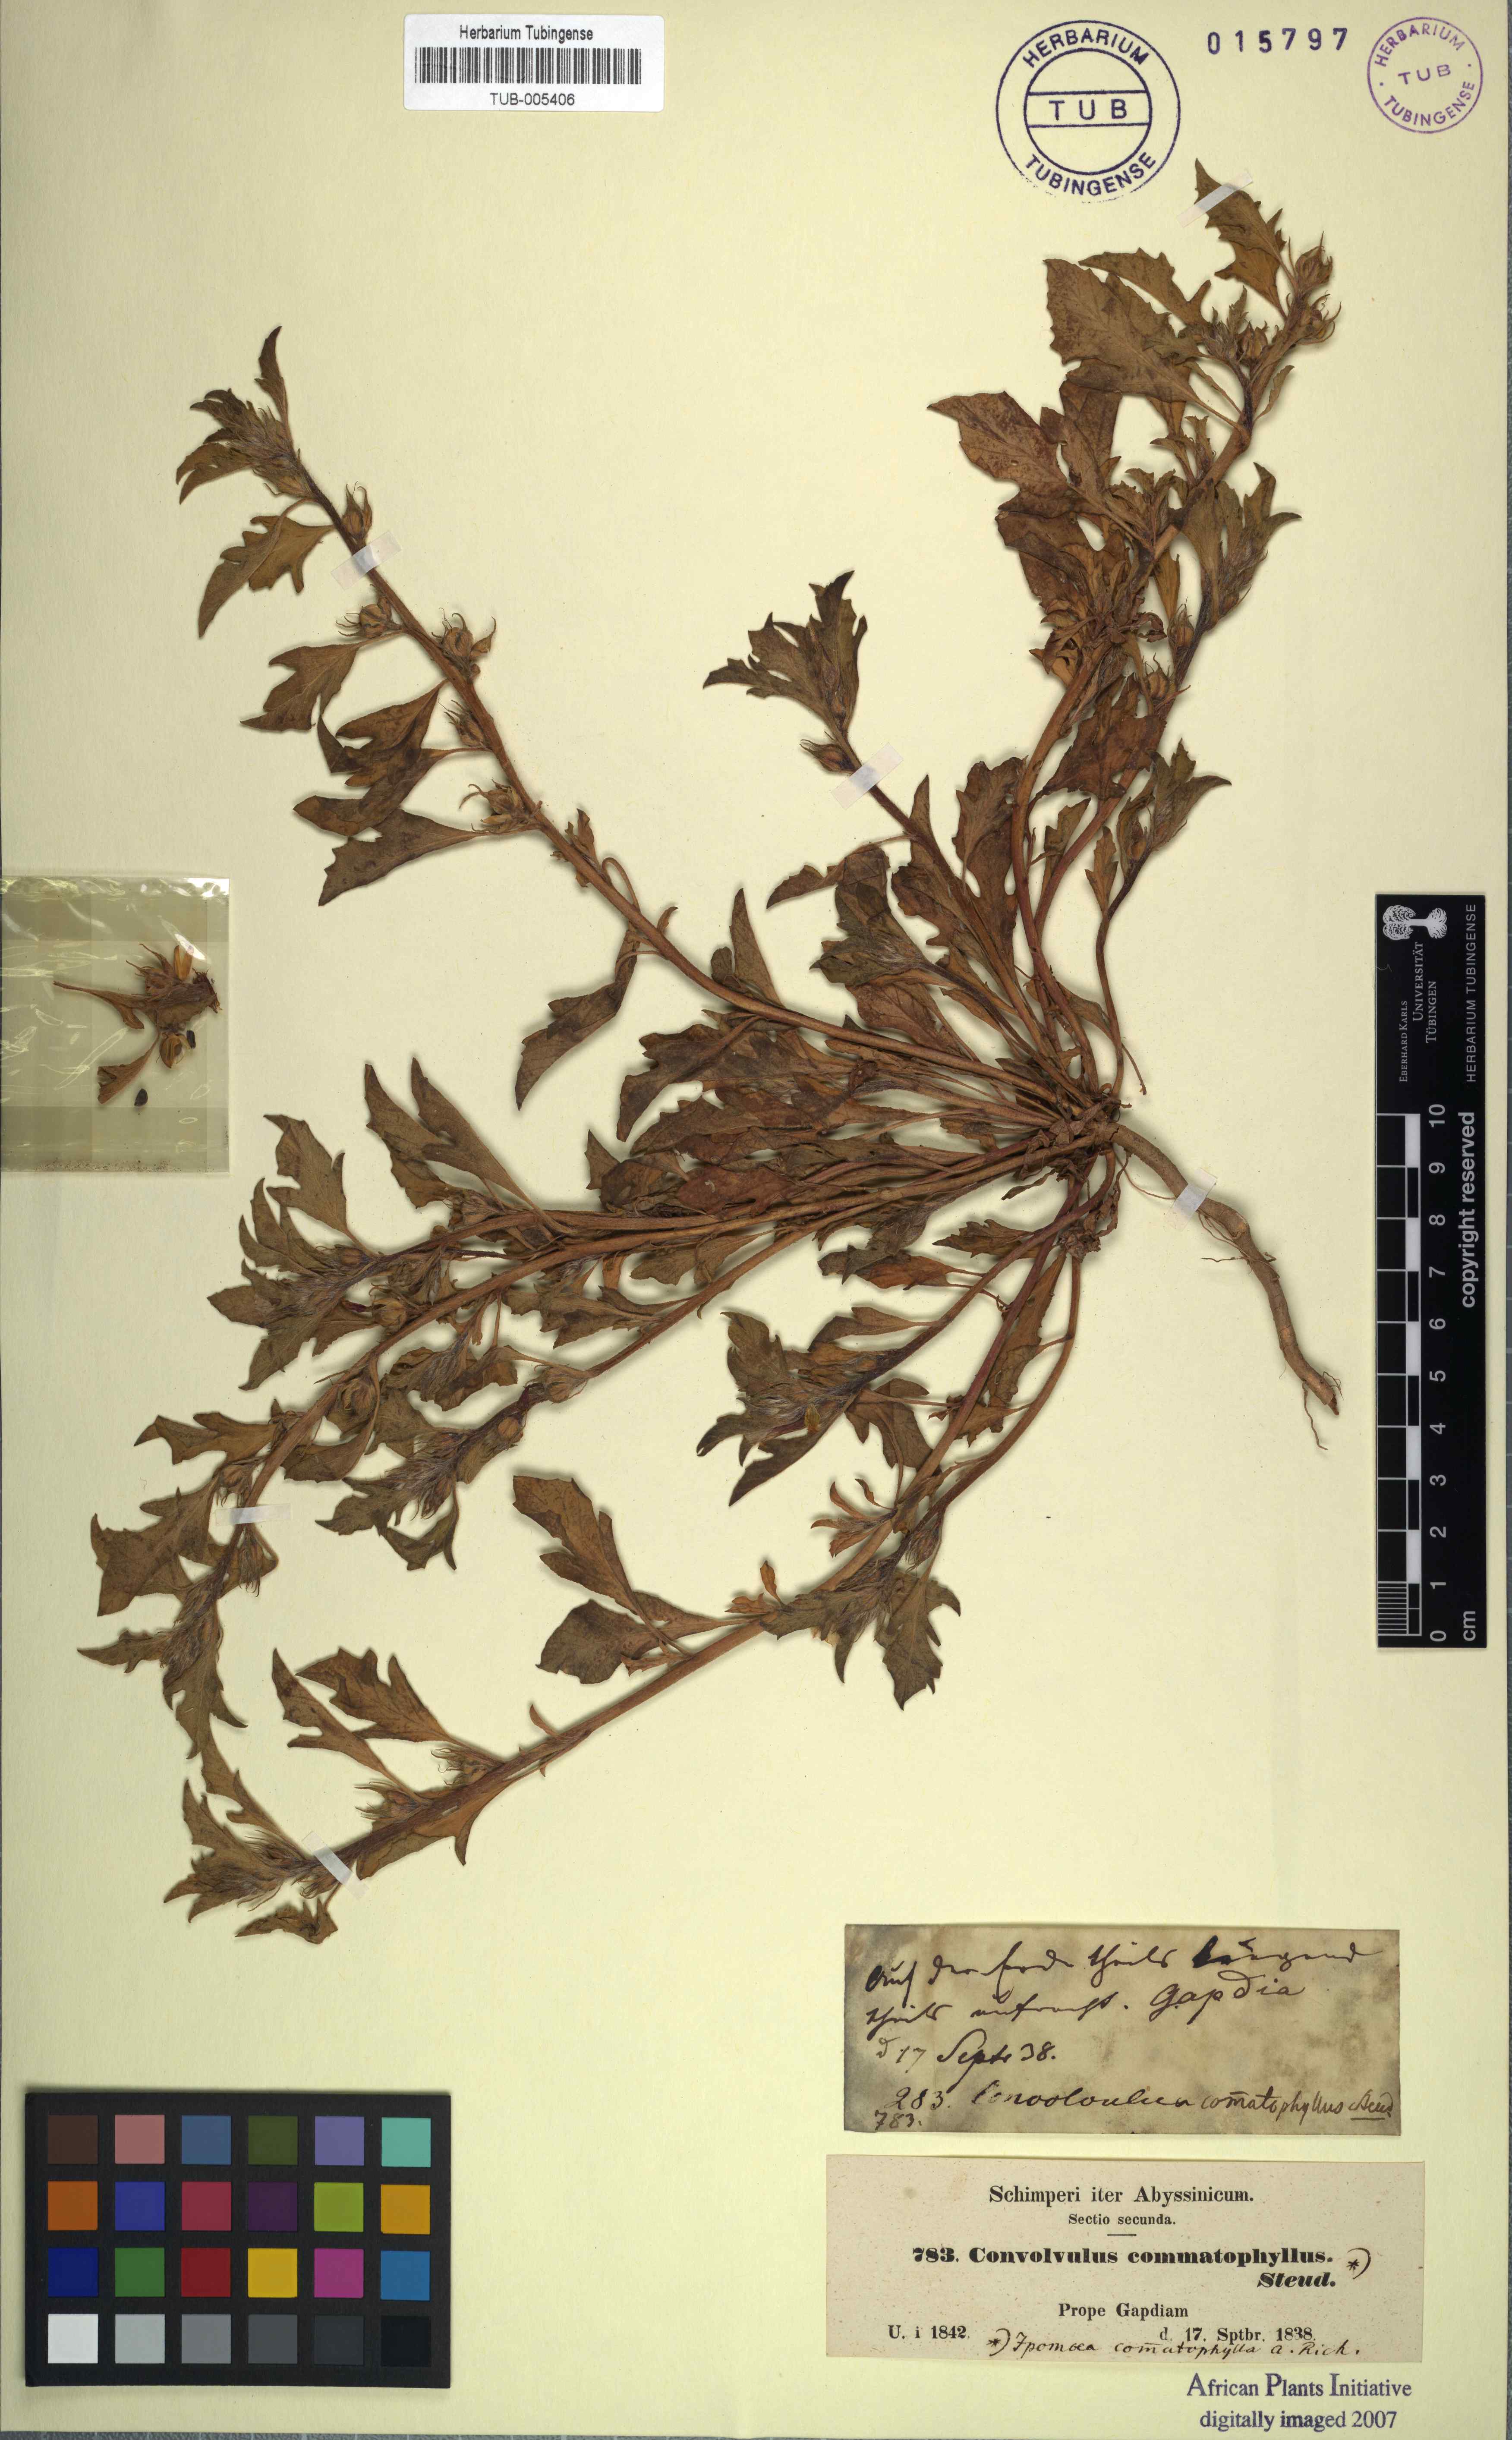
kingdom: Plantae
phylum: Tracheophyta
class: Magnoliopsida
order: Solanales
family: Convolvulaceae
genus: Ipomoea
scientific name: Ipomoea polymorpha
